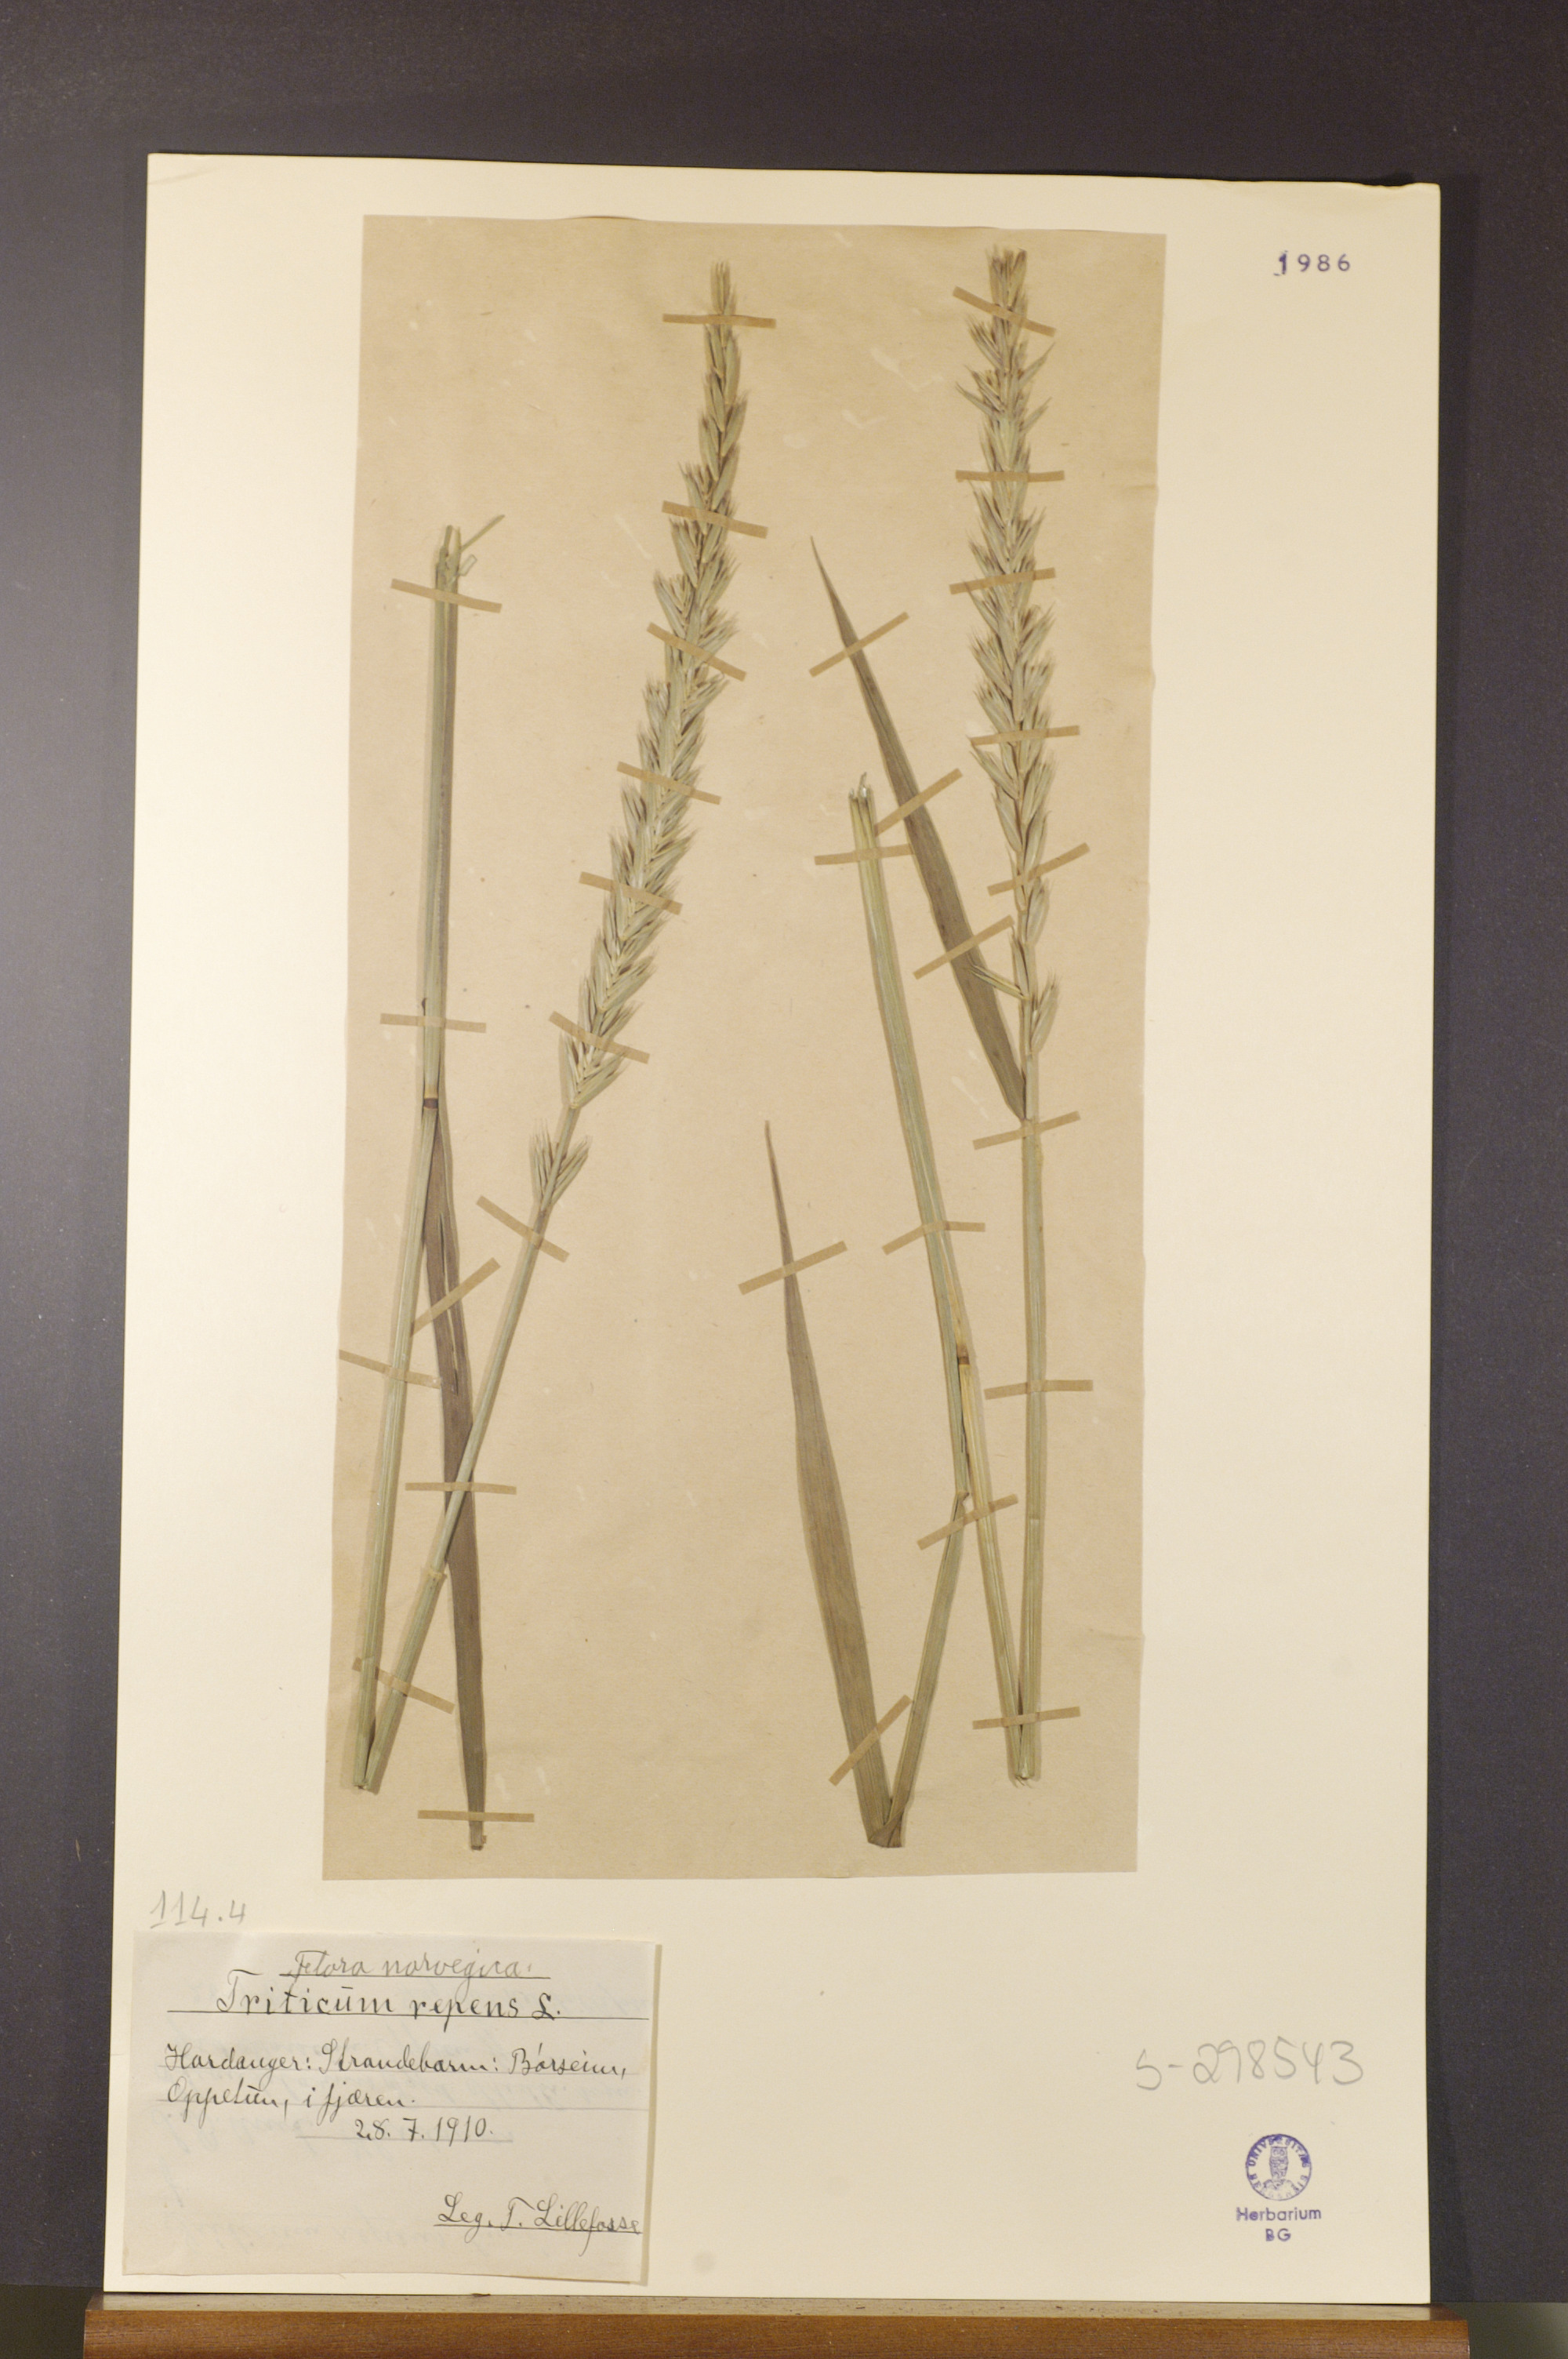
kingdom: Plantae
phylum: Tracheophyta
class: Liliopsida
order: Poales
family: Poaceae
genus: Elymus
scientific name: Elymus repens
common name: Quackgrass
